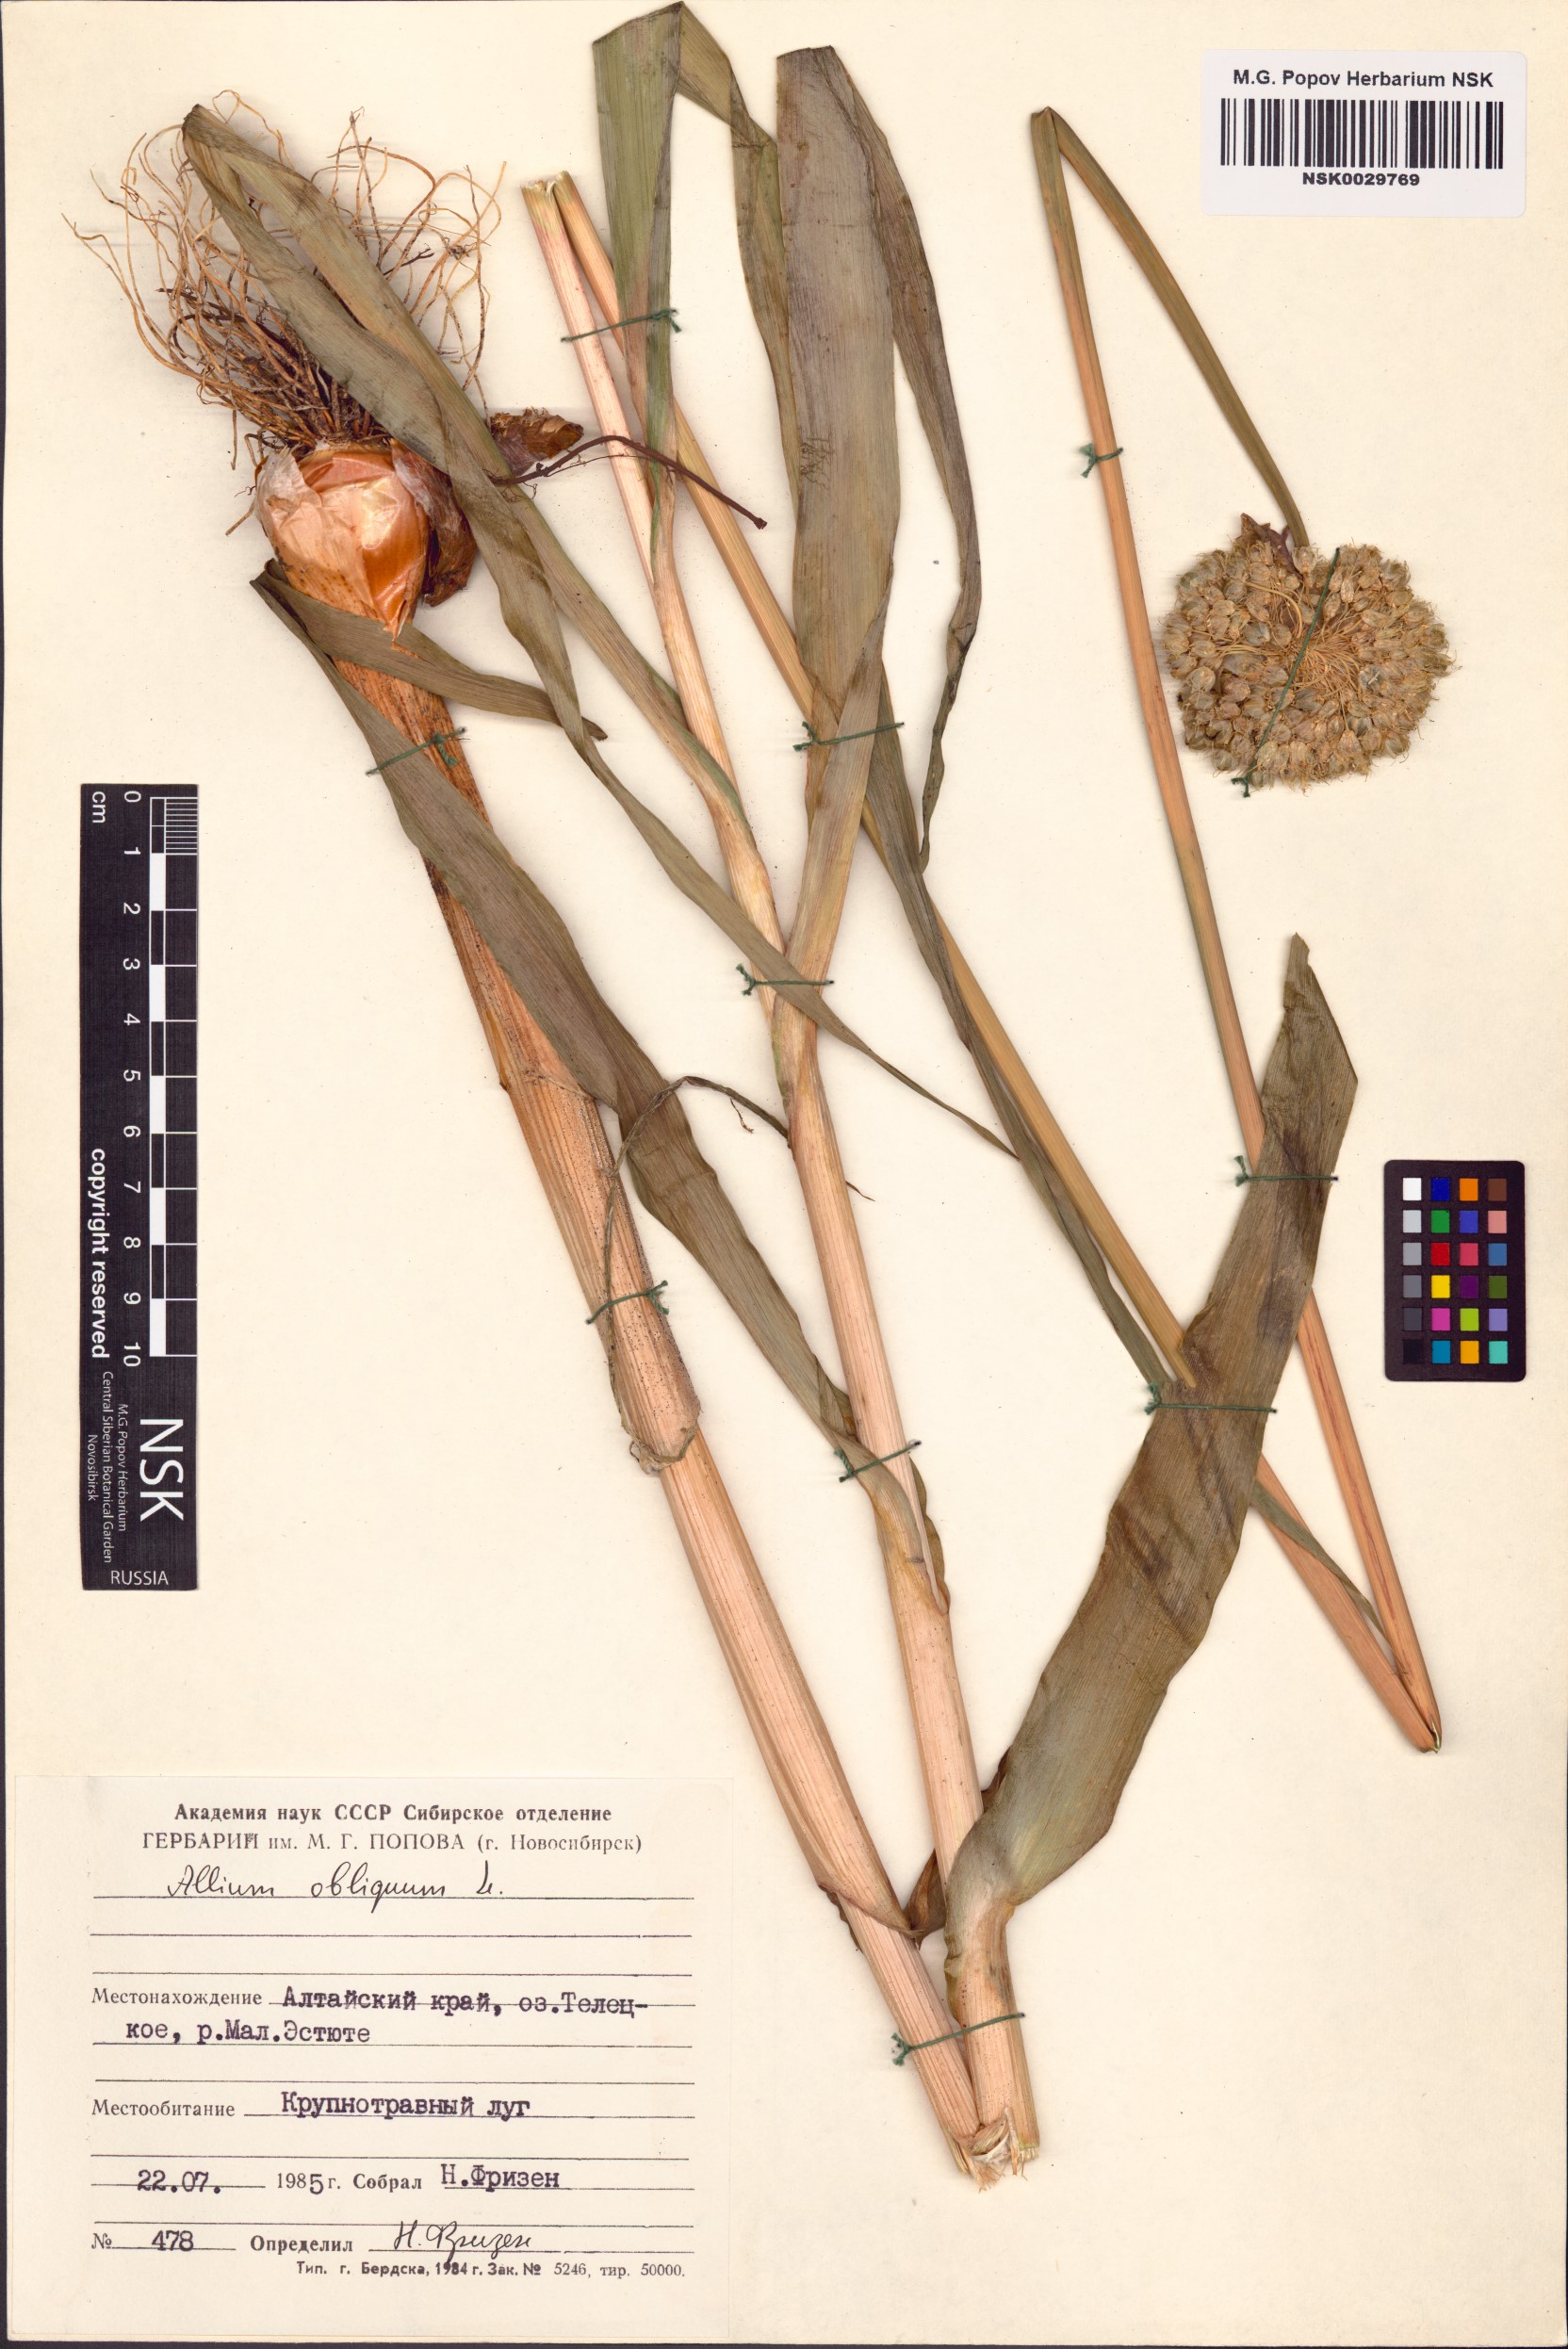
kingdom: Plantae
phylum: Tracheophyta
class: Liliopsida
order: Asparagales
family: Amaryllidaceae
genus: Allium
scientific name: Allium obliquum
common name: Oblique onion
